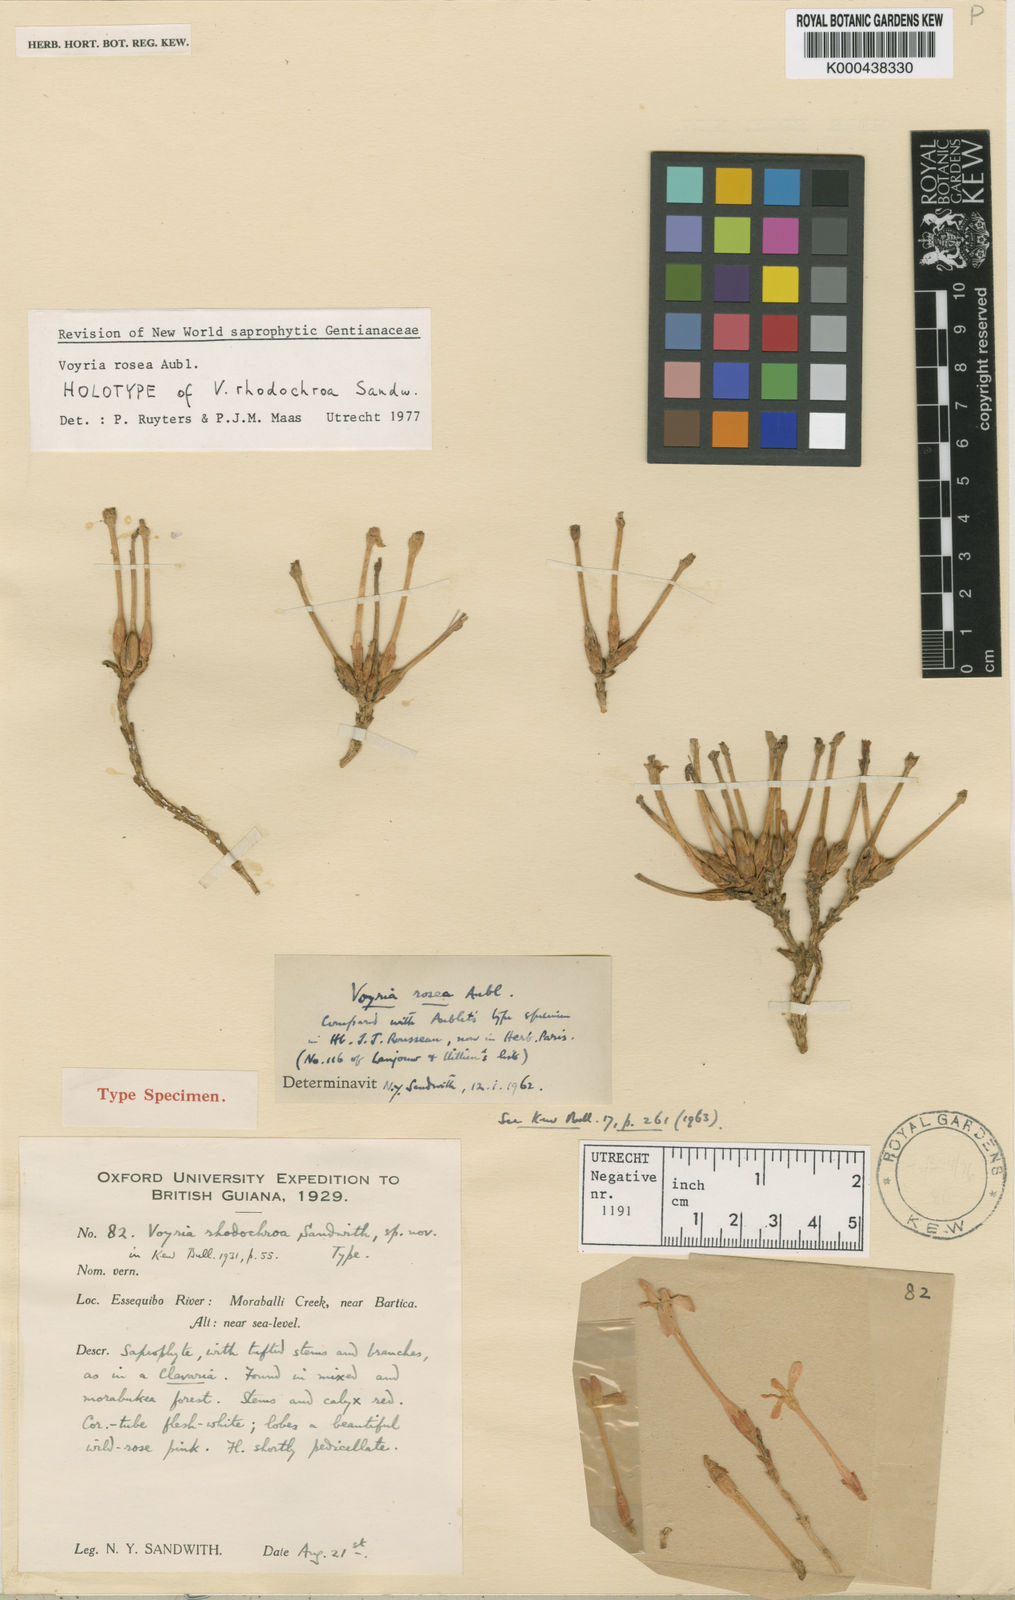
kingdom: Plantae
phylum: Tracheophyta
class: Magnoliopsida
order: Gentianales
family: Gentianaceae
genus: Voyria
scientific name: Voyria rosea
